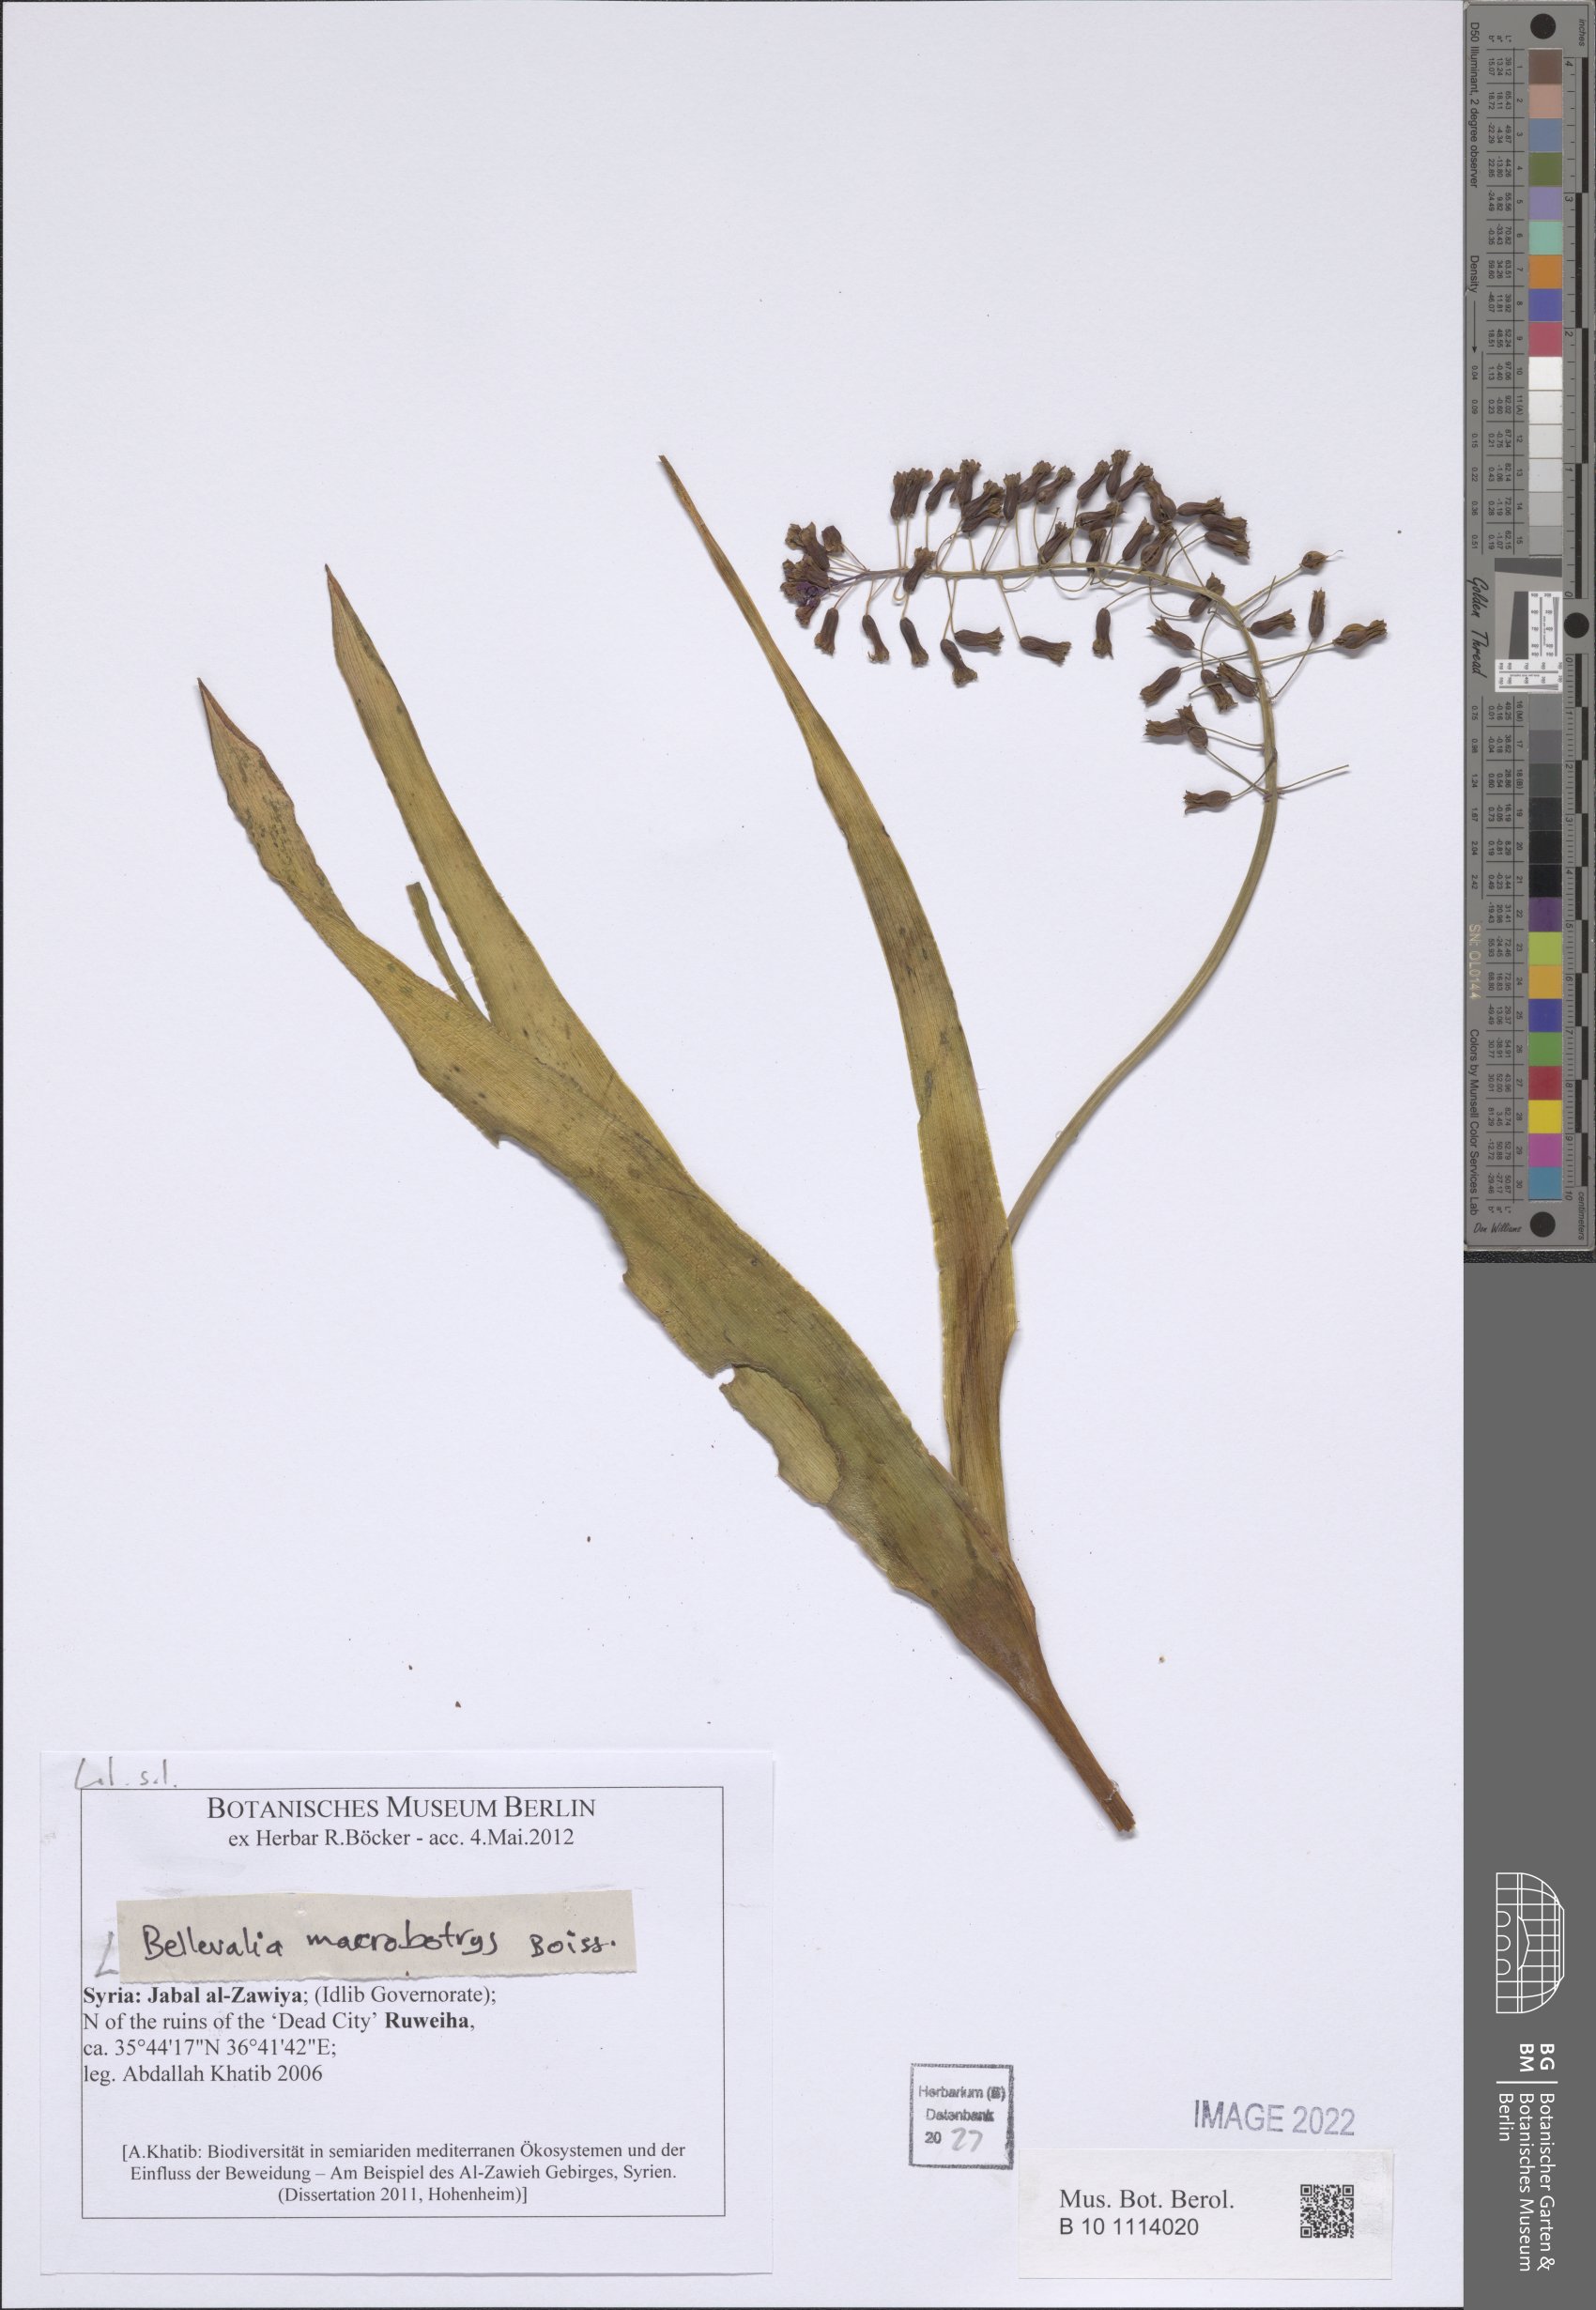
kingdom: Plantae
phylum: Tracheophyta
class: Liliopsida
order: Asparagales
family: Asparagaceae
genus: Bellevalia
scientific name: Bellevalia macrobotrys
